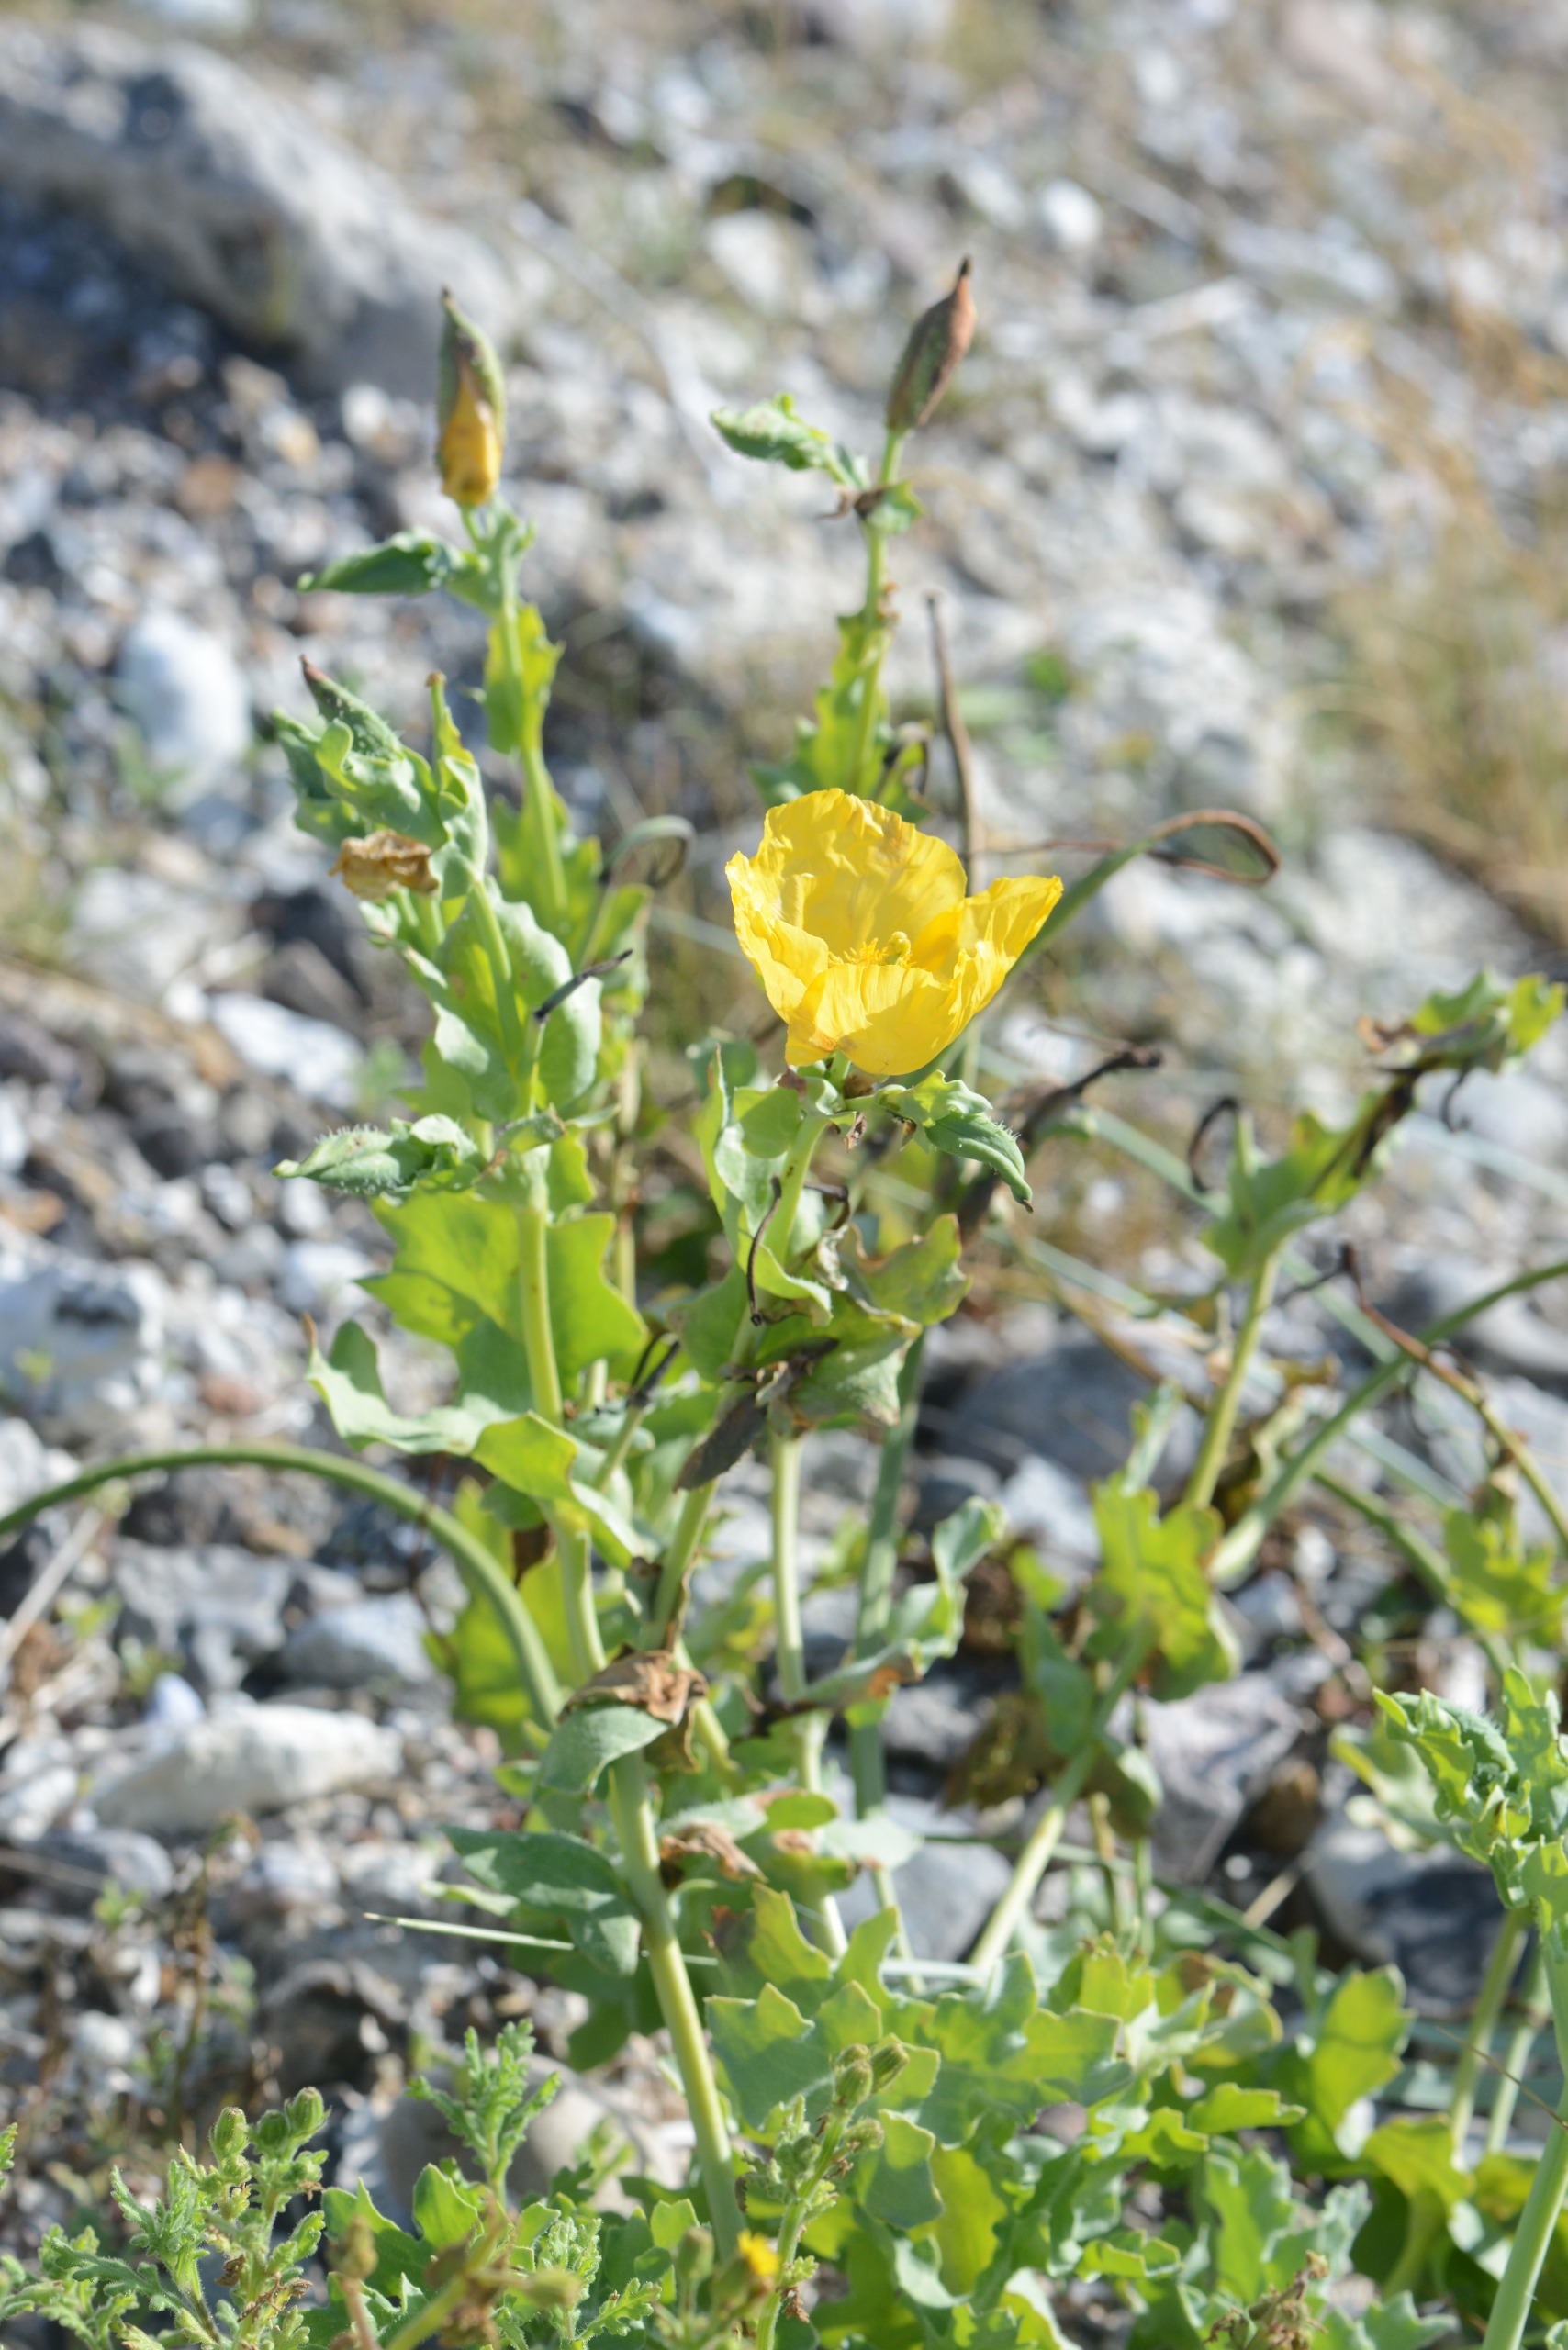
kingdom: Plantae
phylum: Tracheophyta
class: Magnoliopsida
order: Ranunculales
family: Papaveraceae
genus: Glaucium
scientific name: Glaucium flavum
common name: Hornskulpe
